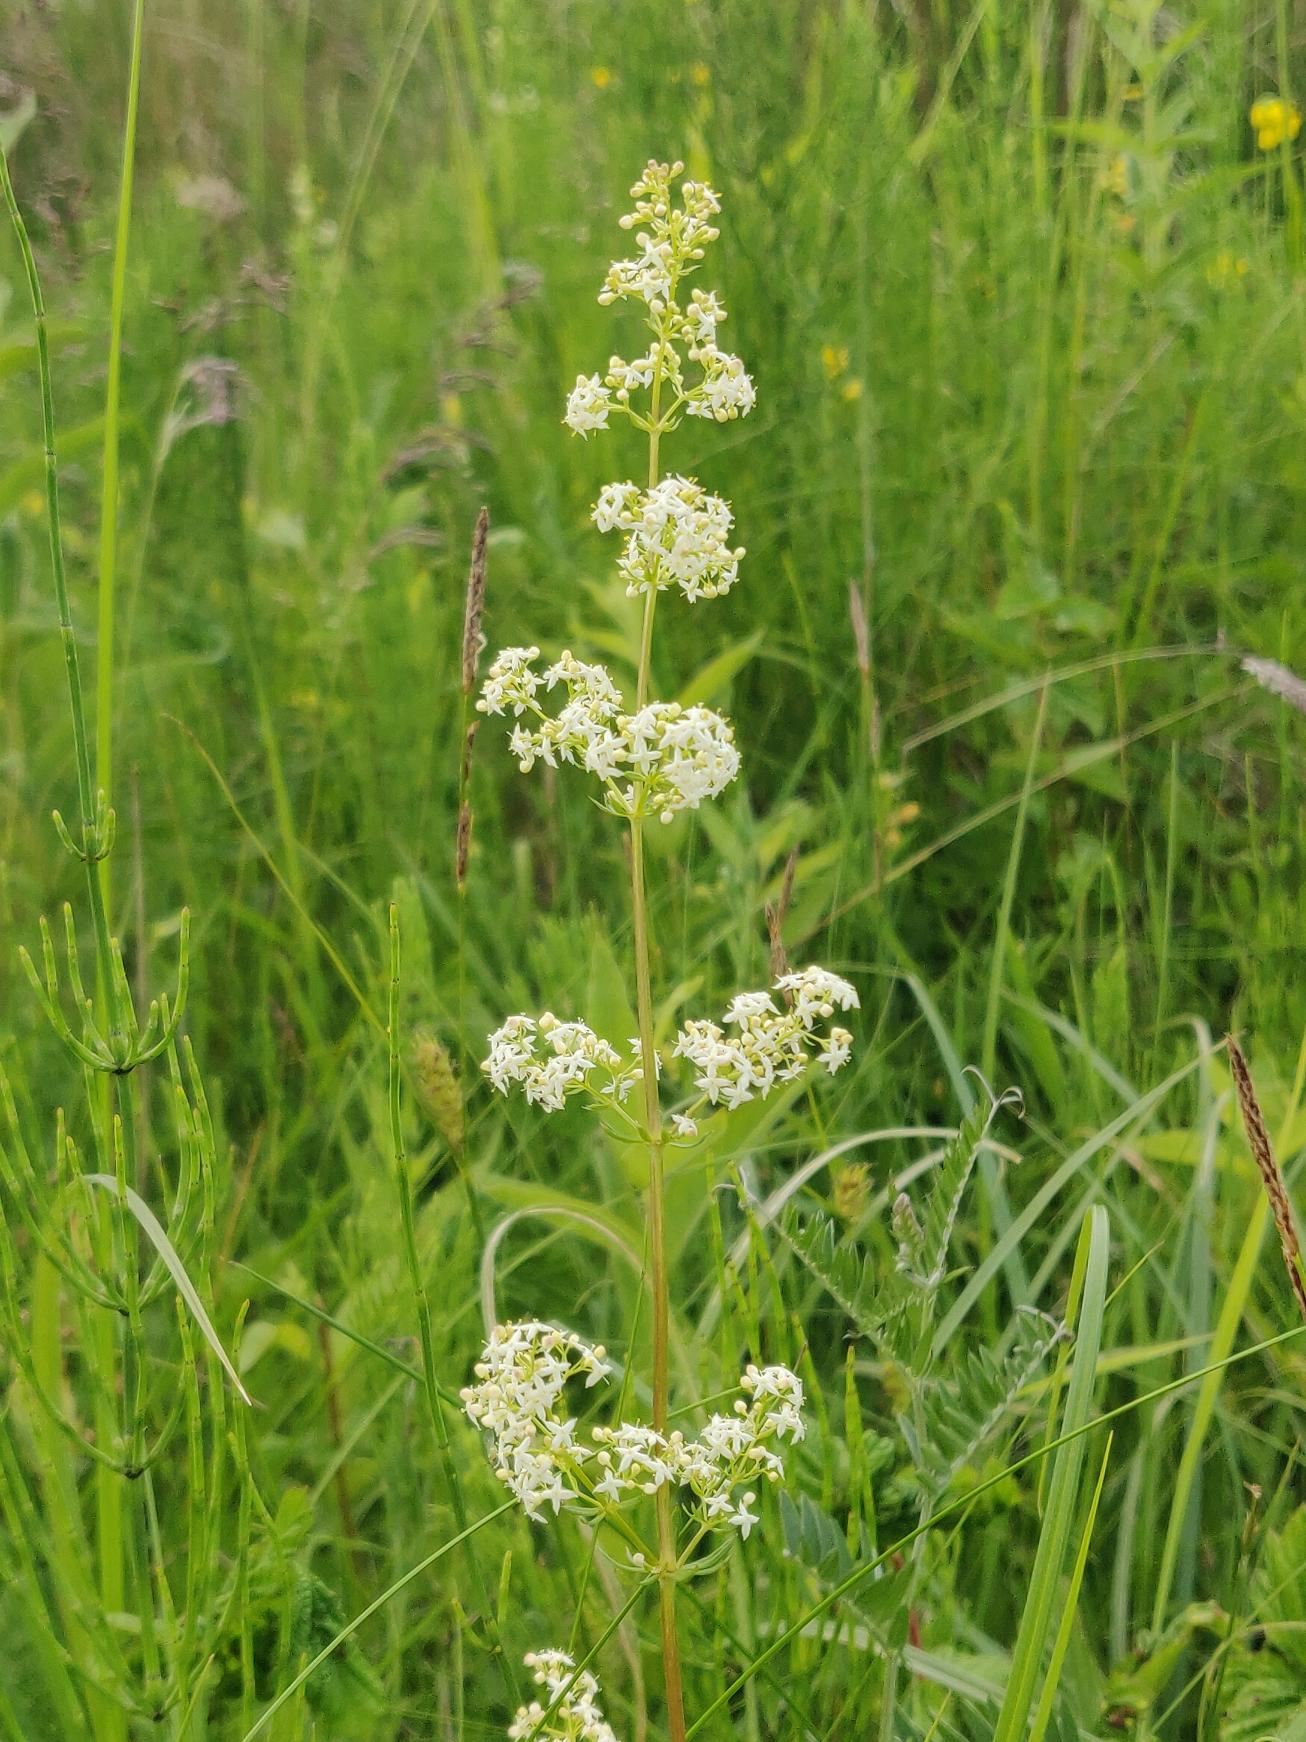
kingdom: Plantae
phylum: Tracheophyta
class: Magnoliopsida
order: Gentianales
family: Rubiaceae
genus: Galium
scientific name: Galium album
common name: Smalbladet snerre
